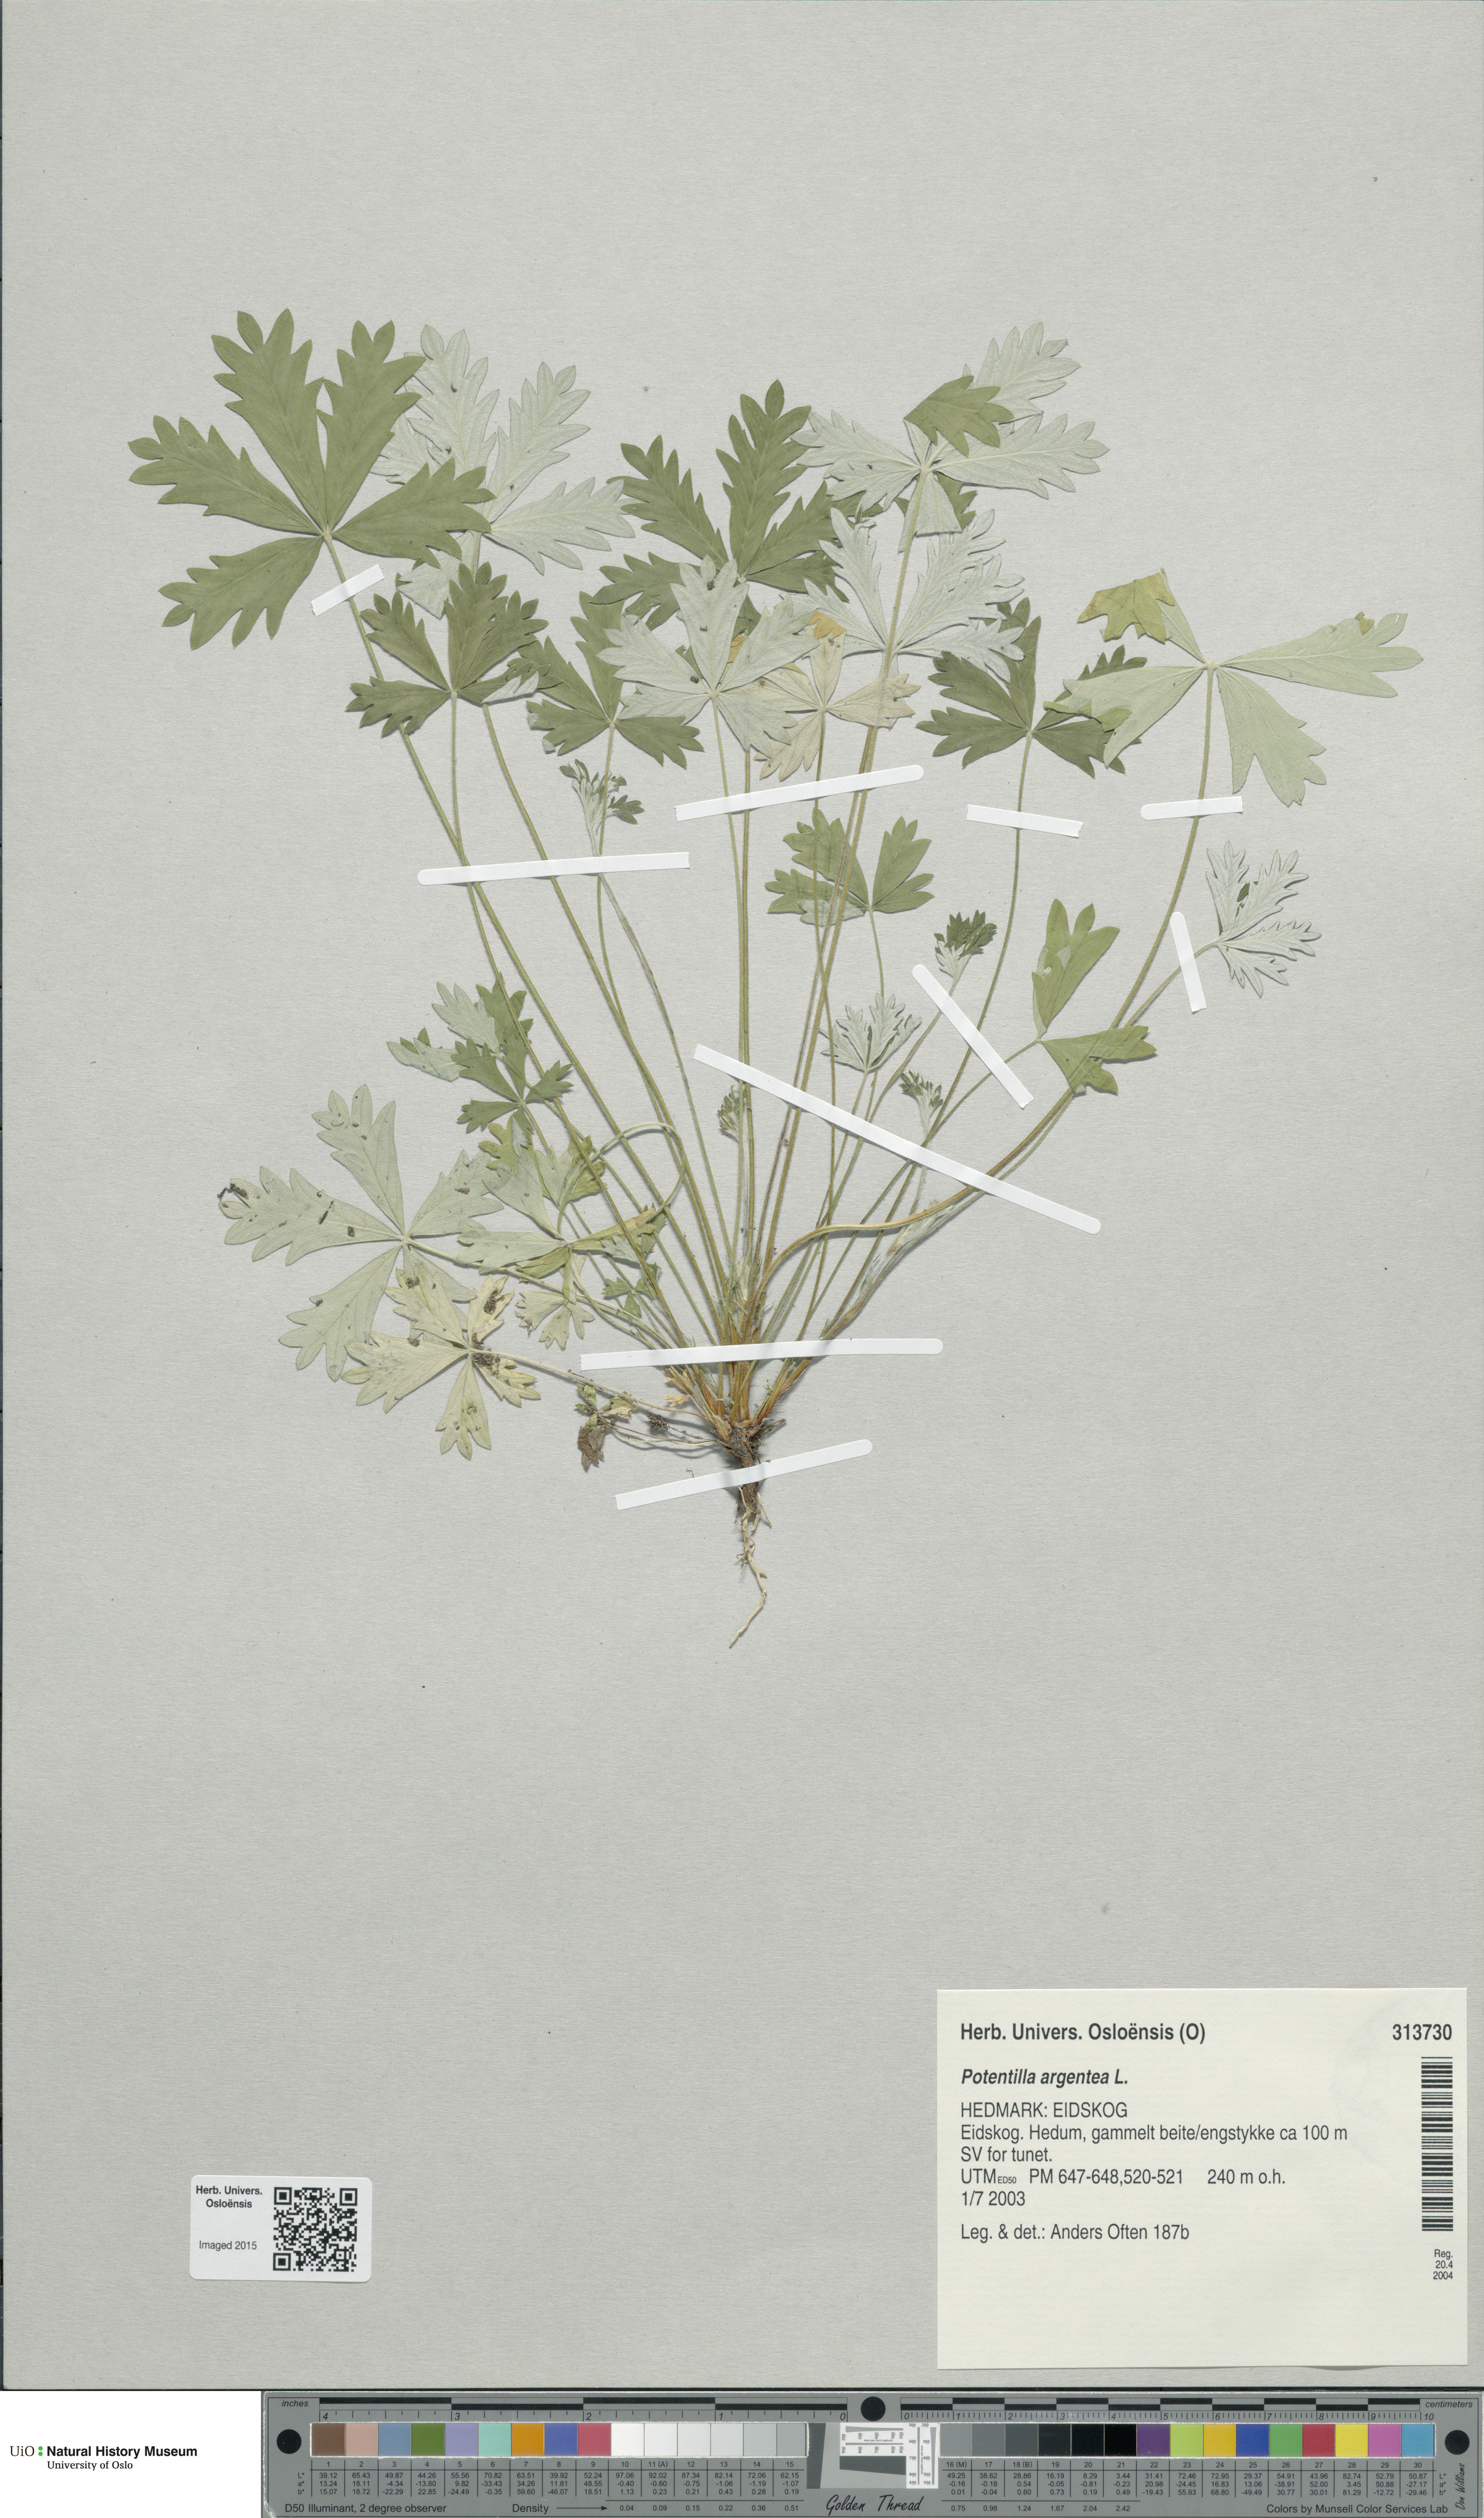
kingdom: Plantae
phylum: Tracheophyta
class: Magnoliopsida
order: Rosales
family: Rosaceae
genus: Potentilla
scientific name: Potentilla argentea
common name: Hoary cinquefoil
